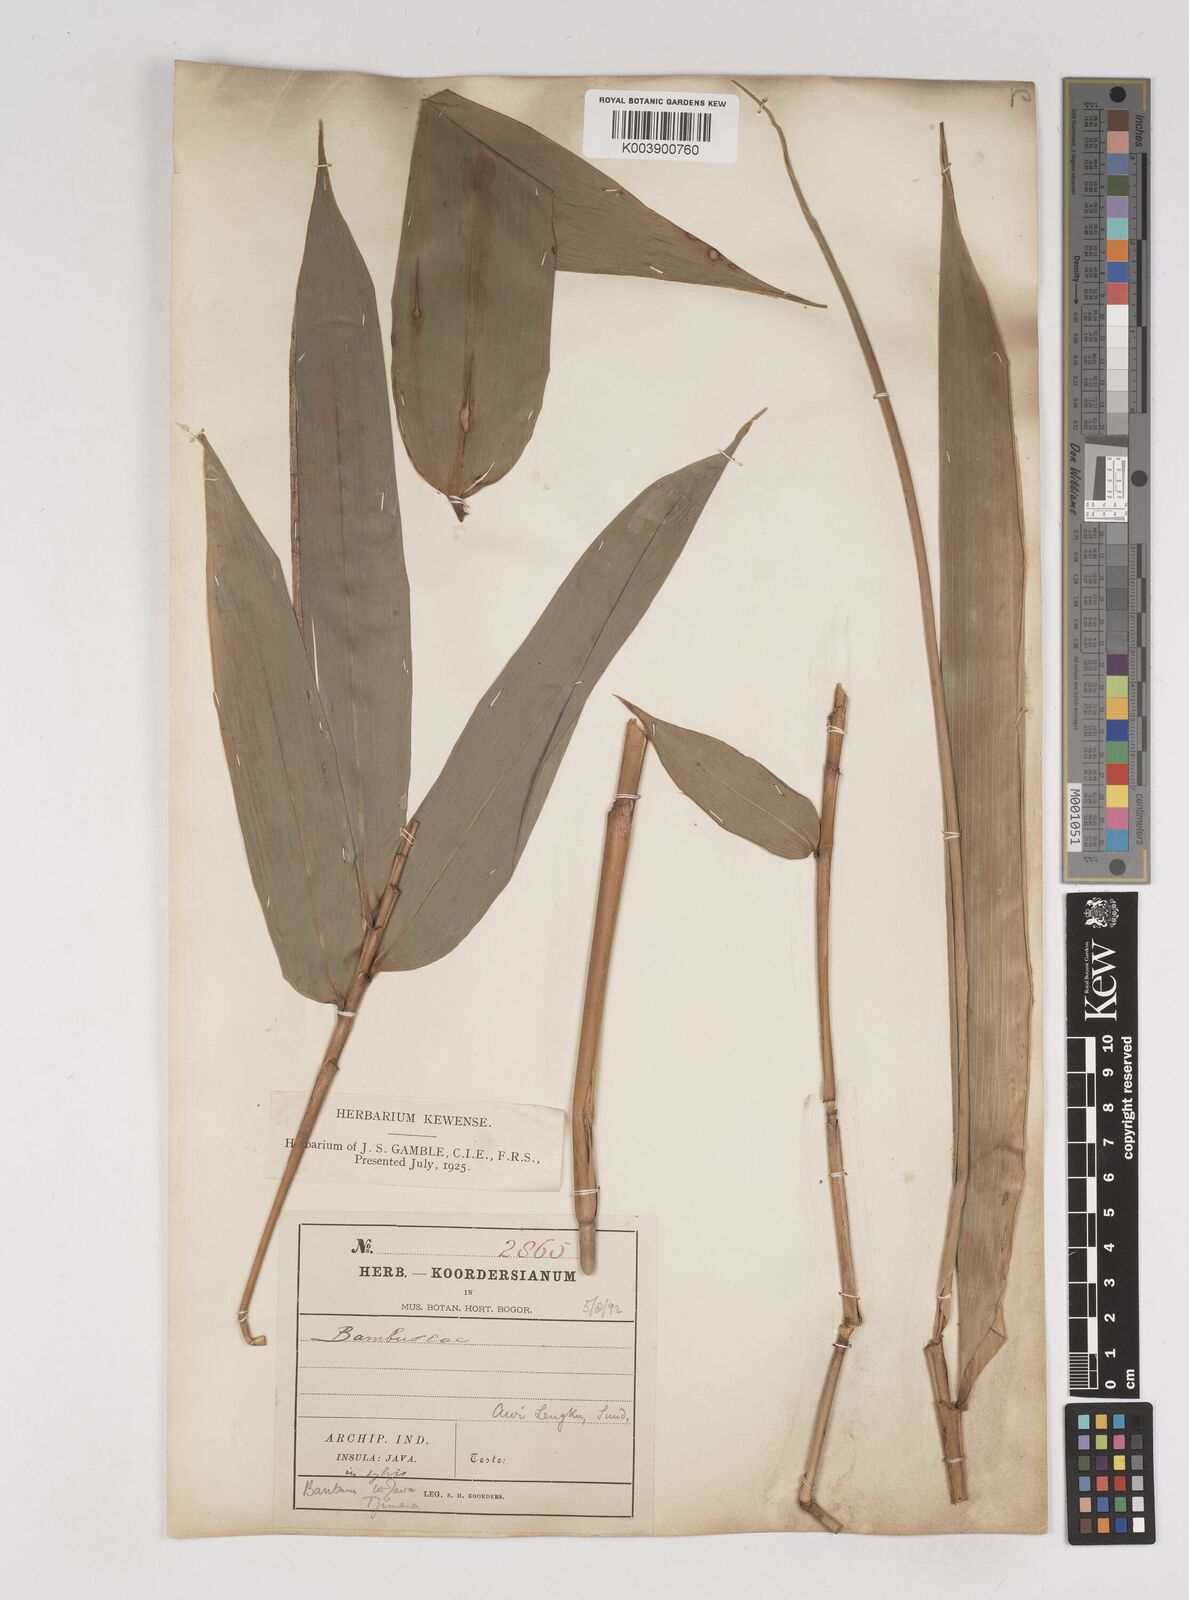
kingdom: Plantae
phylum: Tracheophyta
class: Liliopsida
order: Poales
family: Poaceae
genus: Gigantochloa
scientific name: Gigantochloa
